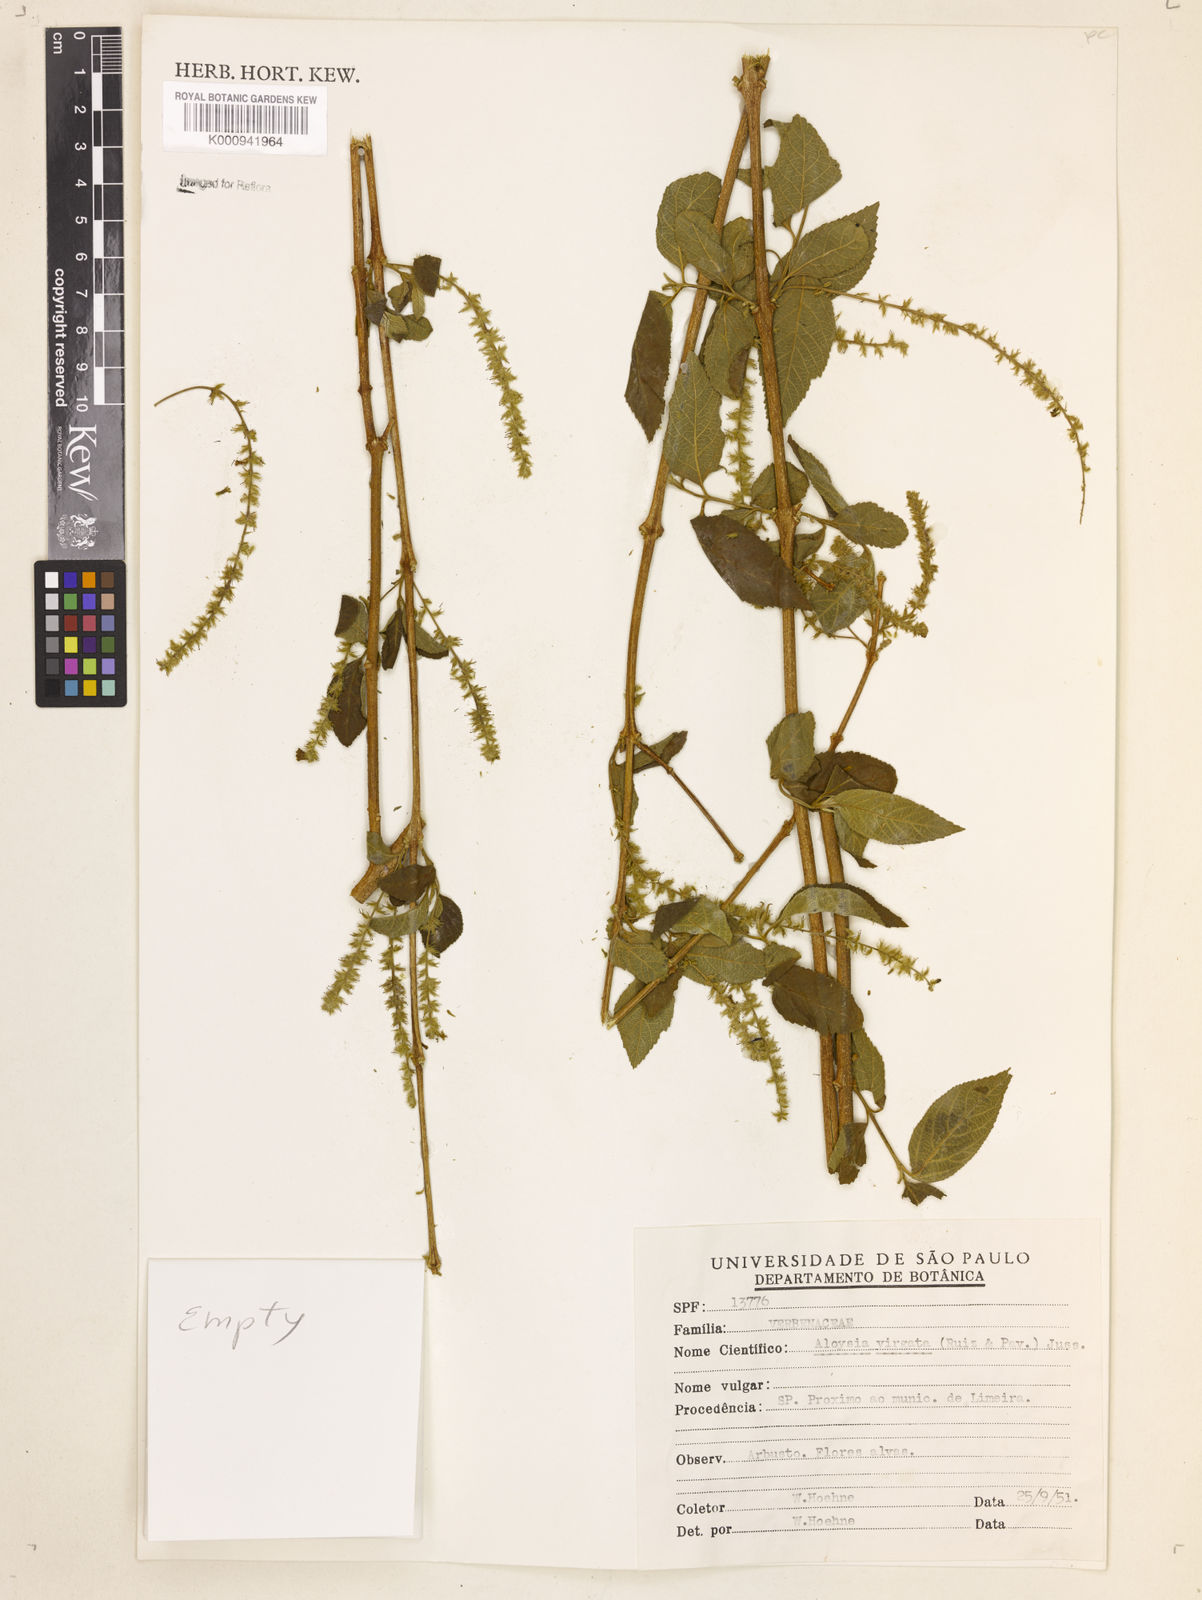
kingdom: Plantae
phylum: Tracheophyta
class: Magnoliopsida
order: Lamiales
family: Verbenaceae
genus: Aloysia
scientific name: Aloysia
